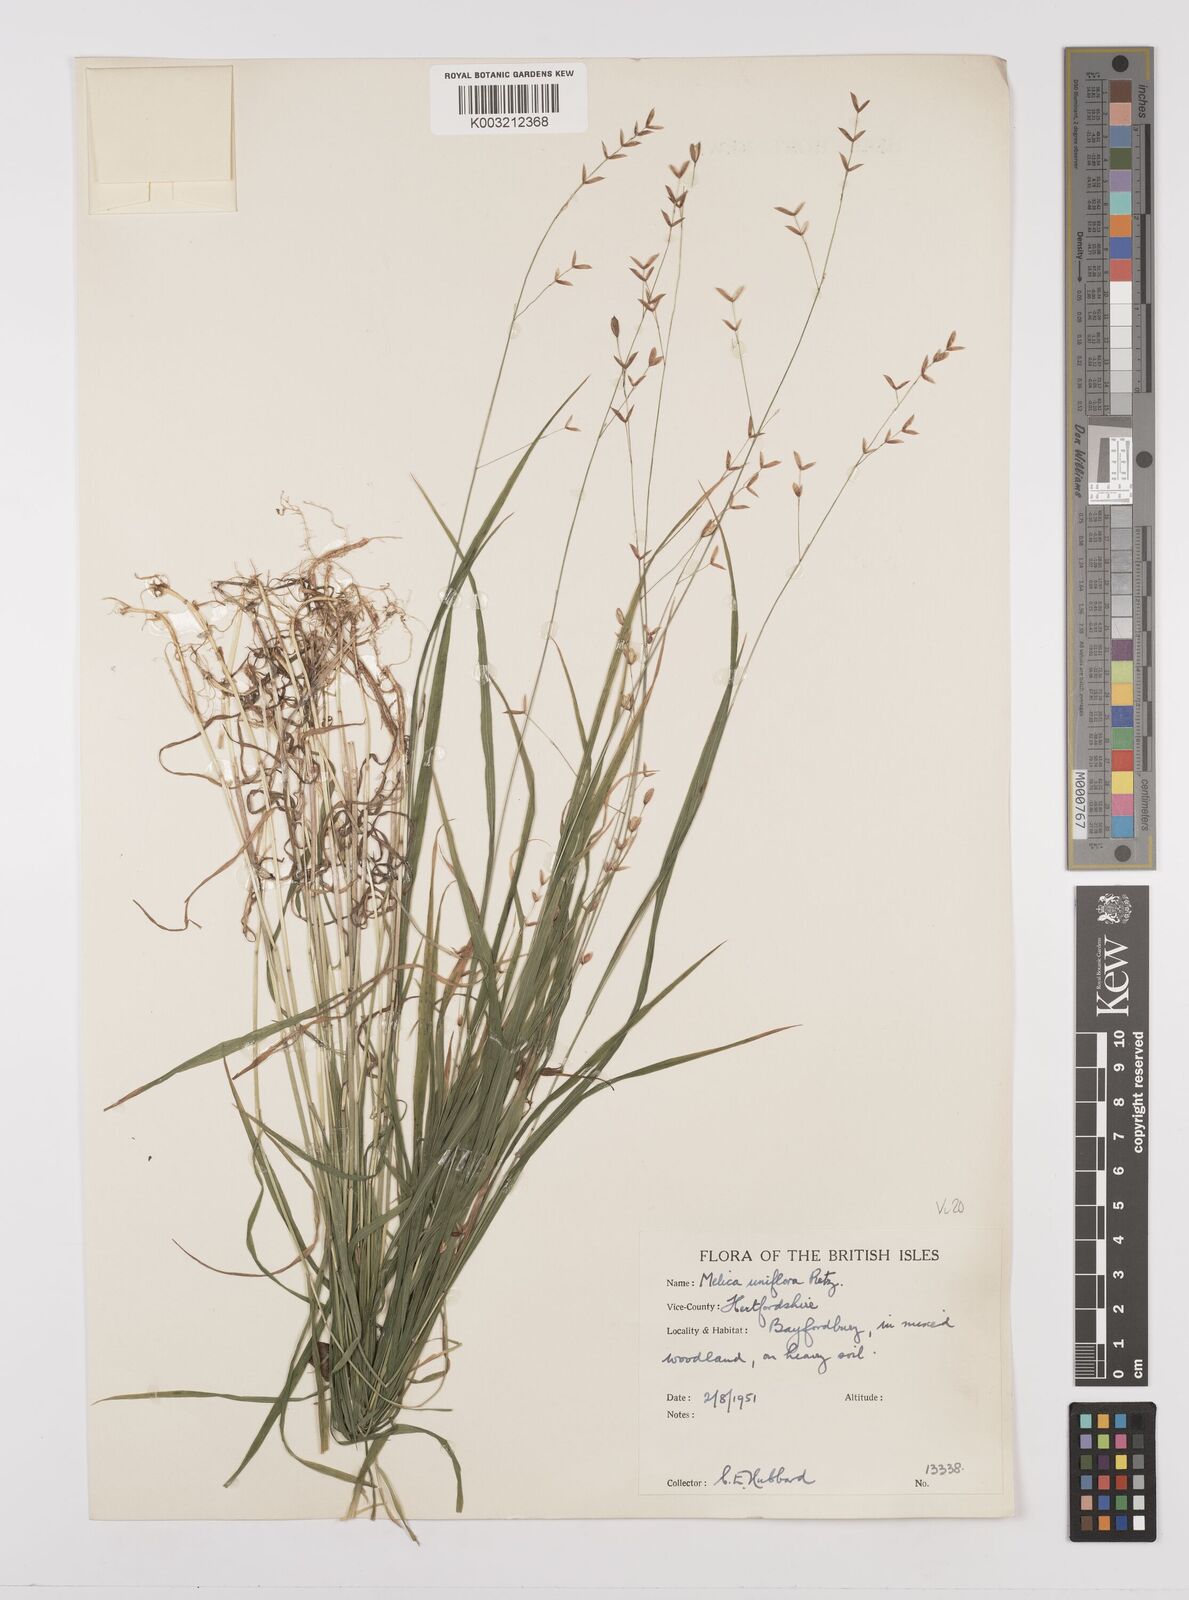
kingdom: Plantae
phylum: Tracheophyta
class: Liliopsida
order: Poales
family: Poaceae
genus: Melica
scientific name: Melica uniflora
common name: Wood melick
